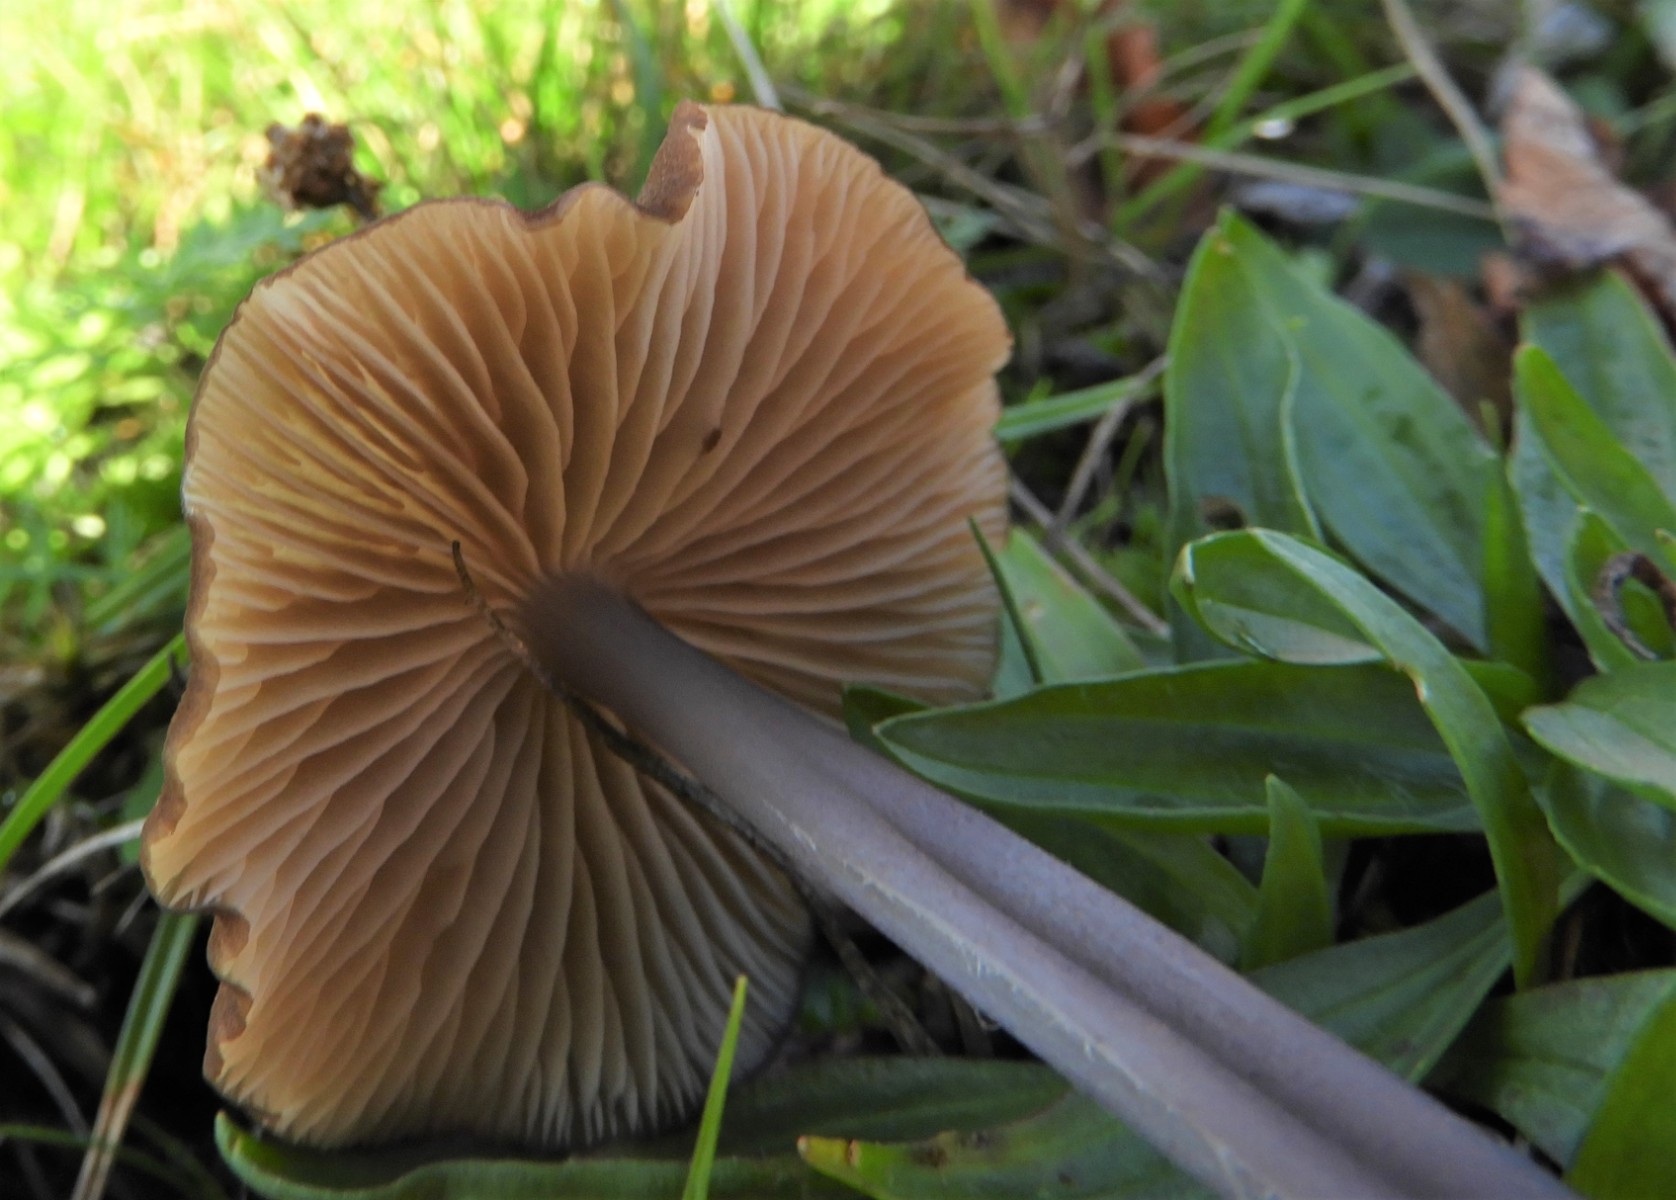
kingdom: Fungi
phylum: Basidiomycota
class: Agaricomycetes
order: Agaricales
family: Entolomataceae
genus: Entoloma
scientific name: Entoloma
